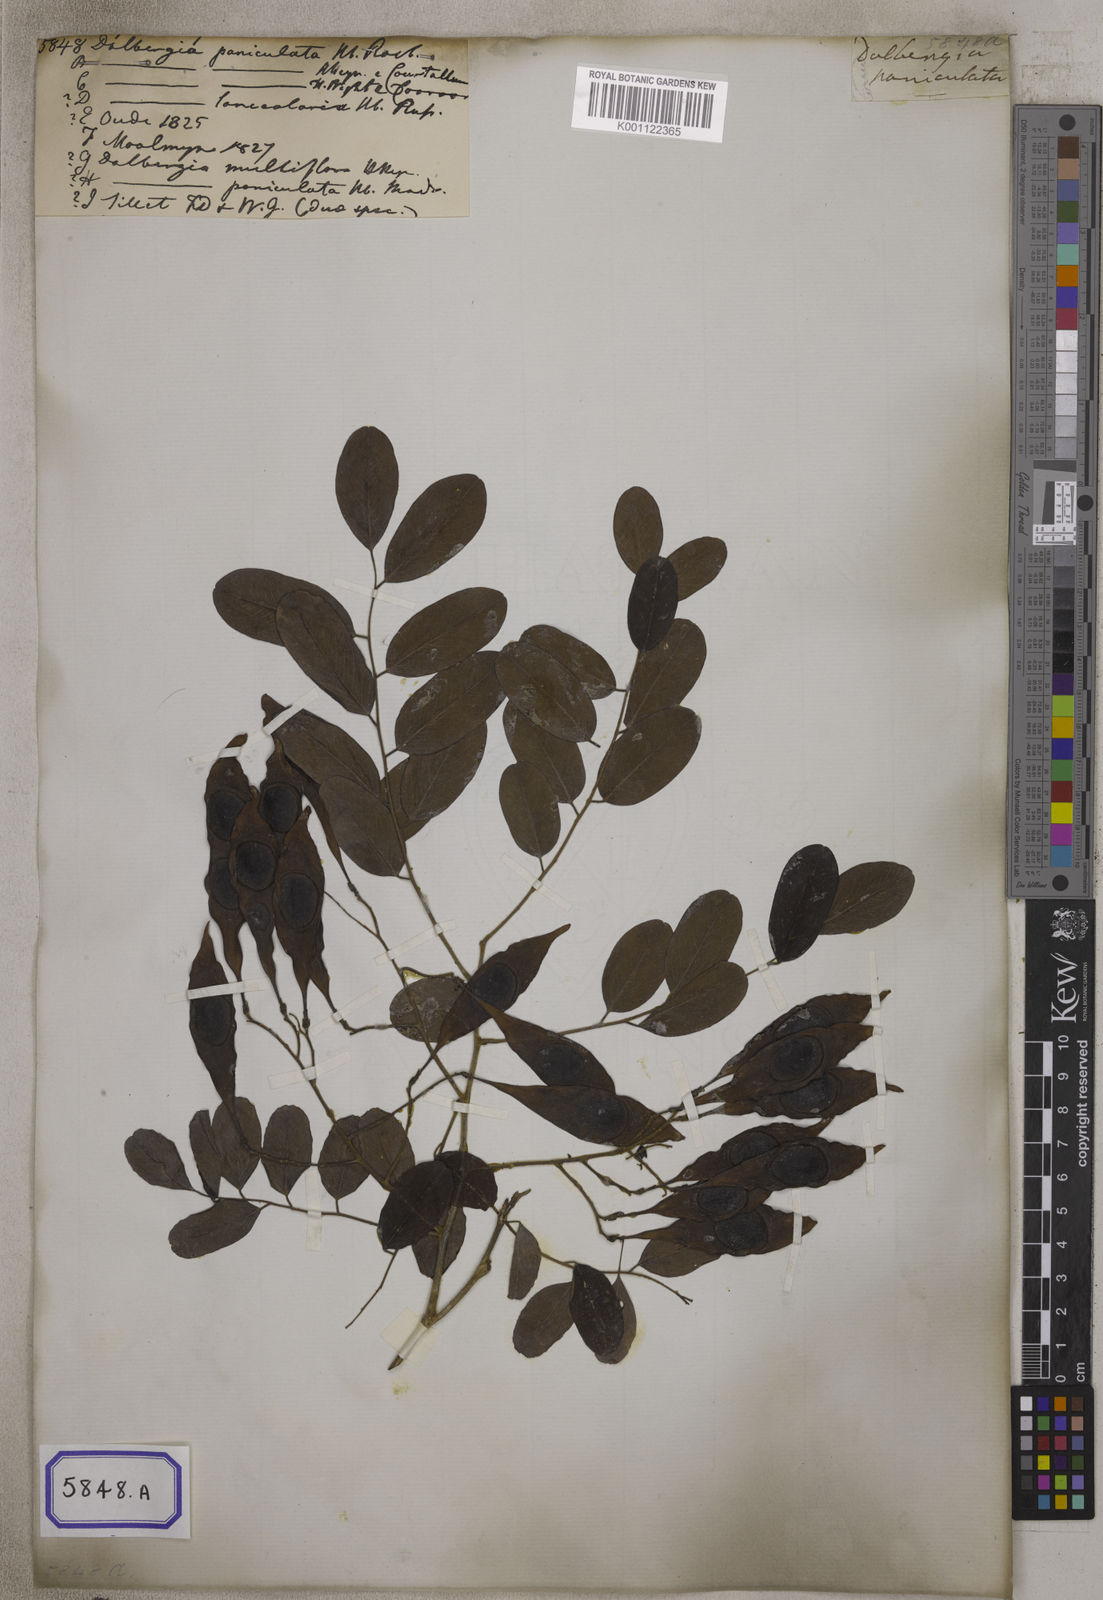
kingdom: Plantae
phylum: Tracheophyta
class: Magnoliopsida
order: Fabales
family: Fabaceae
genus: Dalbergia
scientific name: Dalbergia lanceolaria
